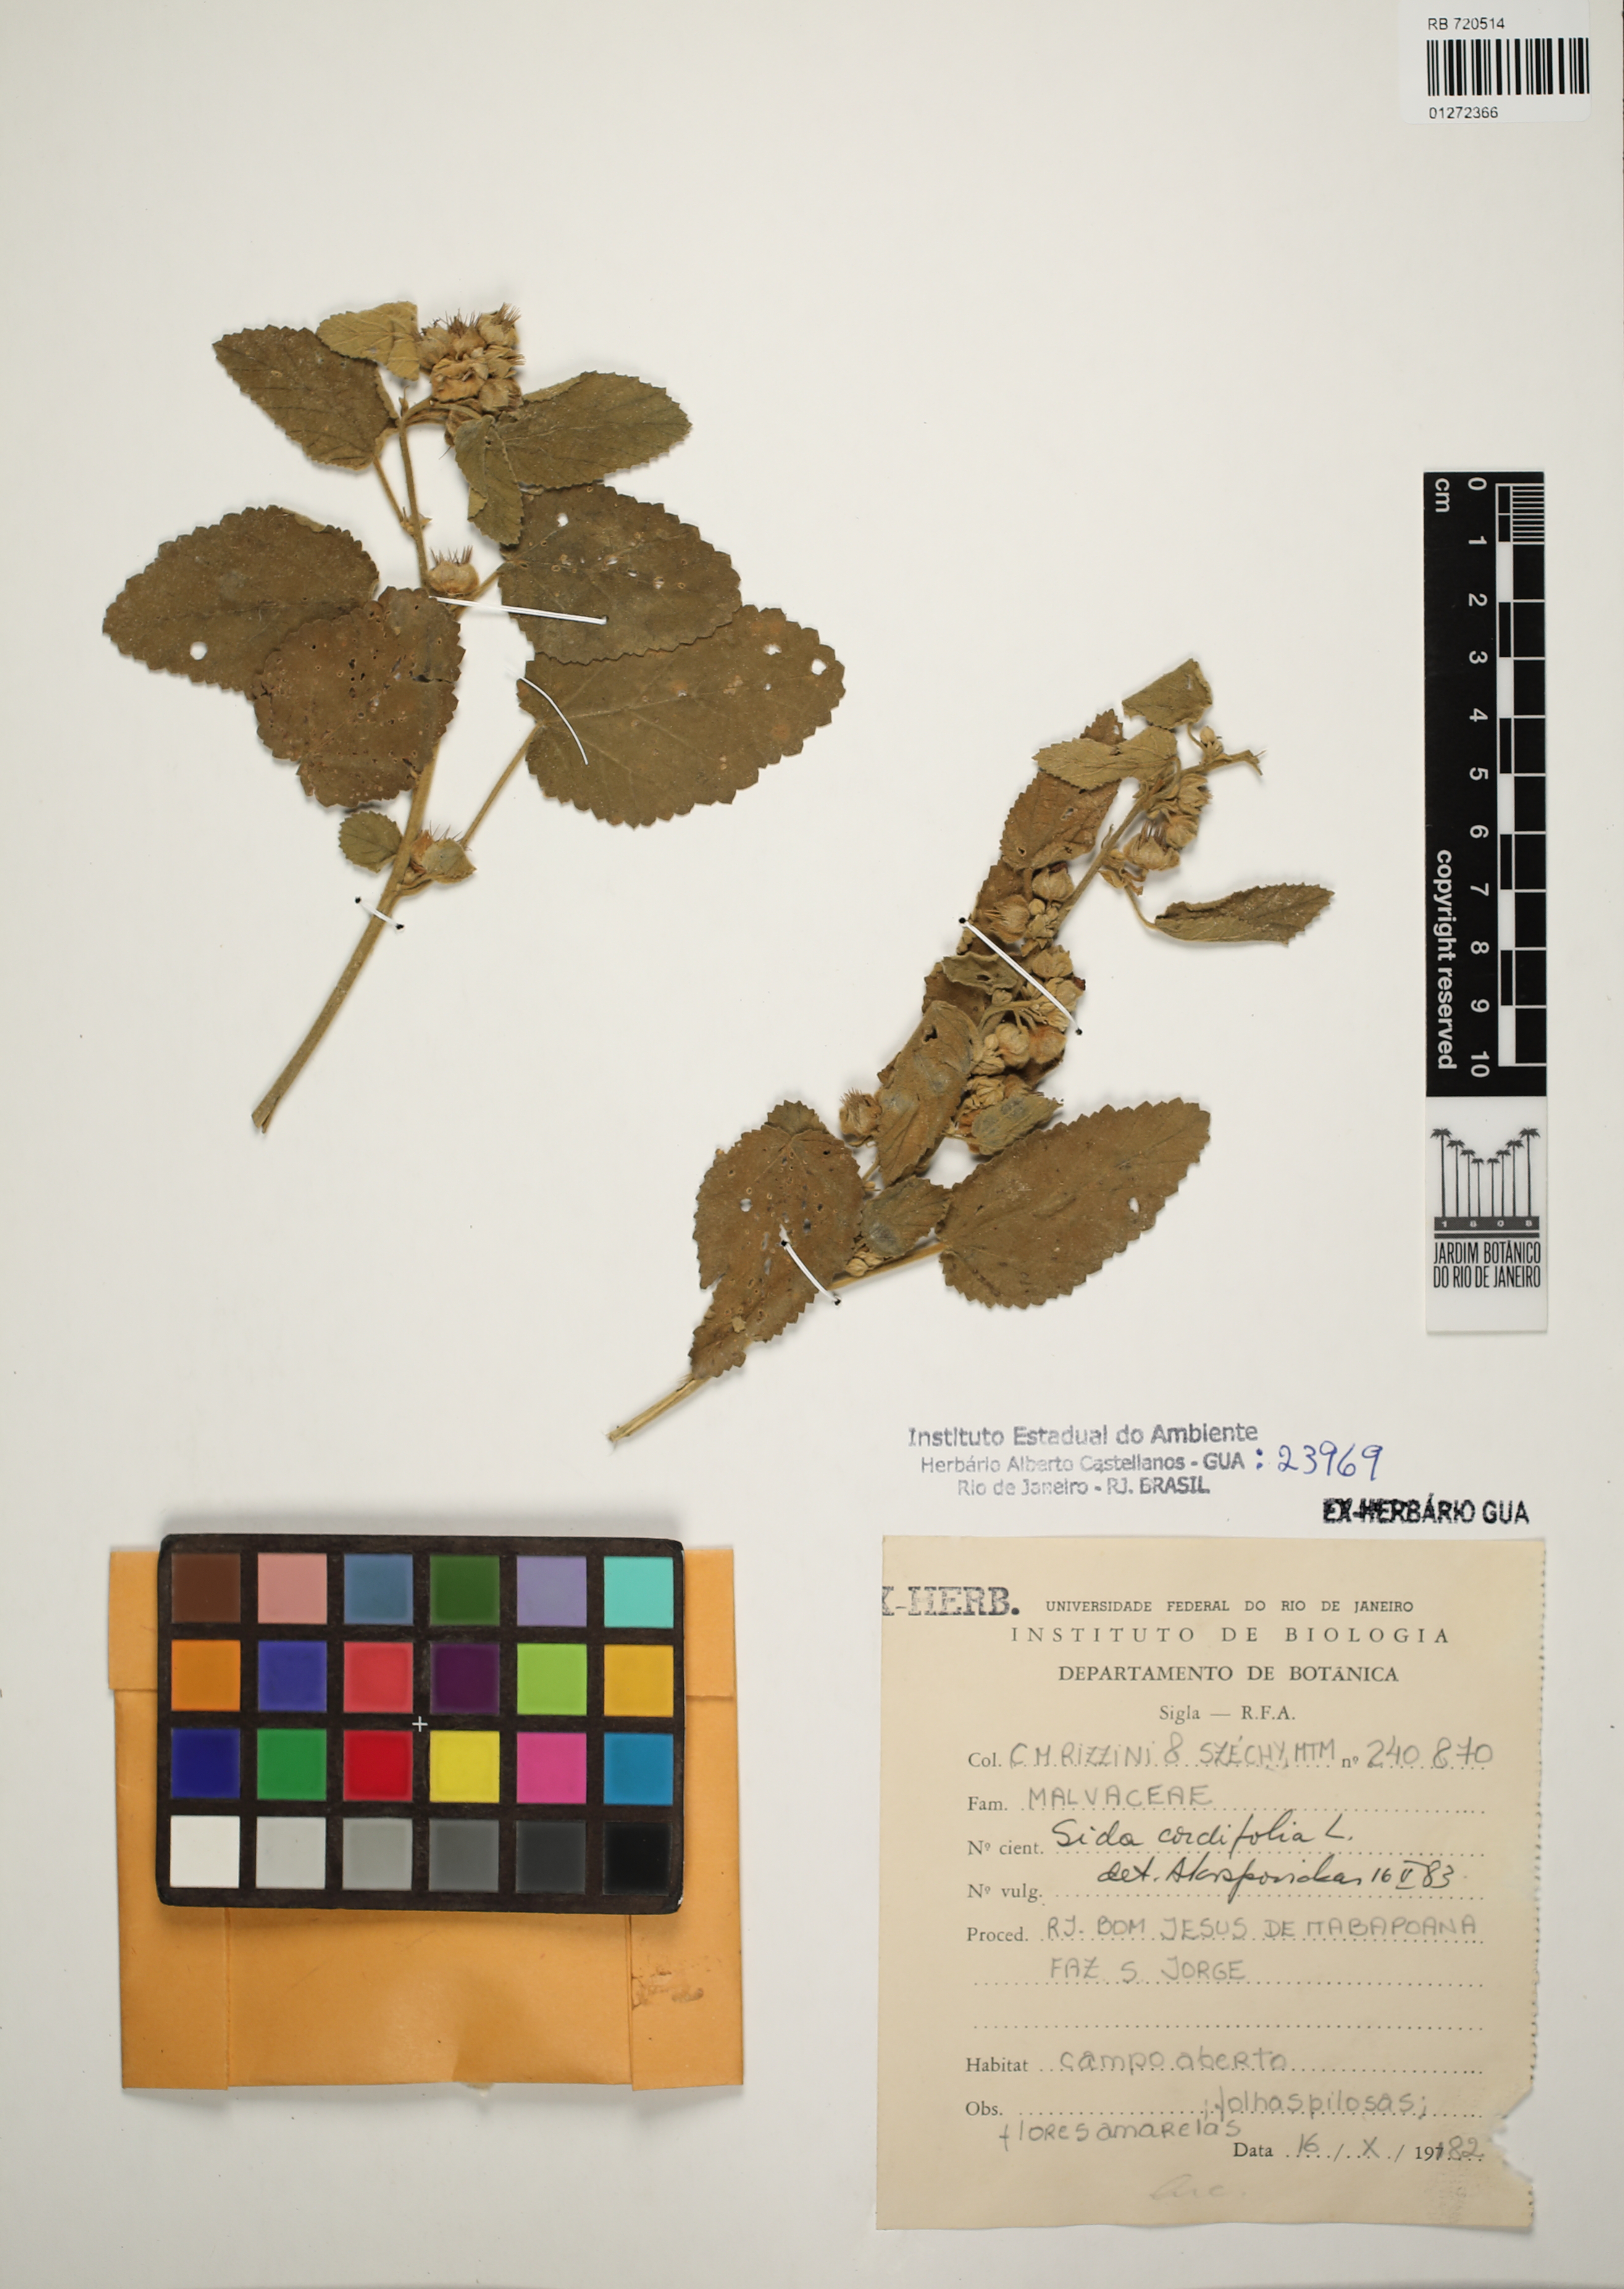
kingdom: Plantae
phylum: Tracheophyta
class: Magnoliopsida
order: Malvales
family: Malvaceae
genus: Sida
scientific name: Sida cordifolia
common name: Ilima
